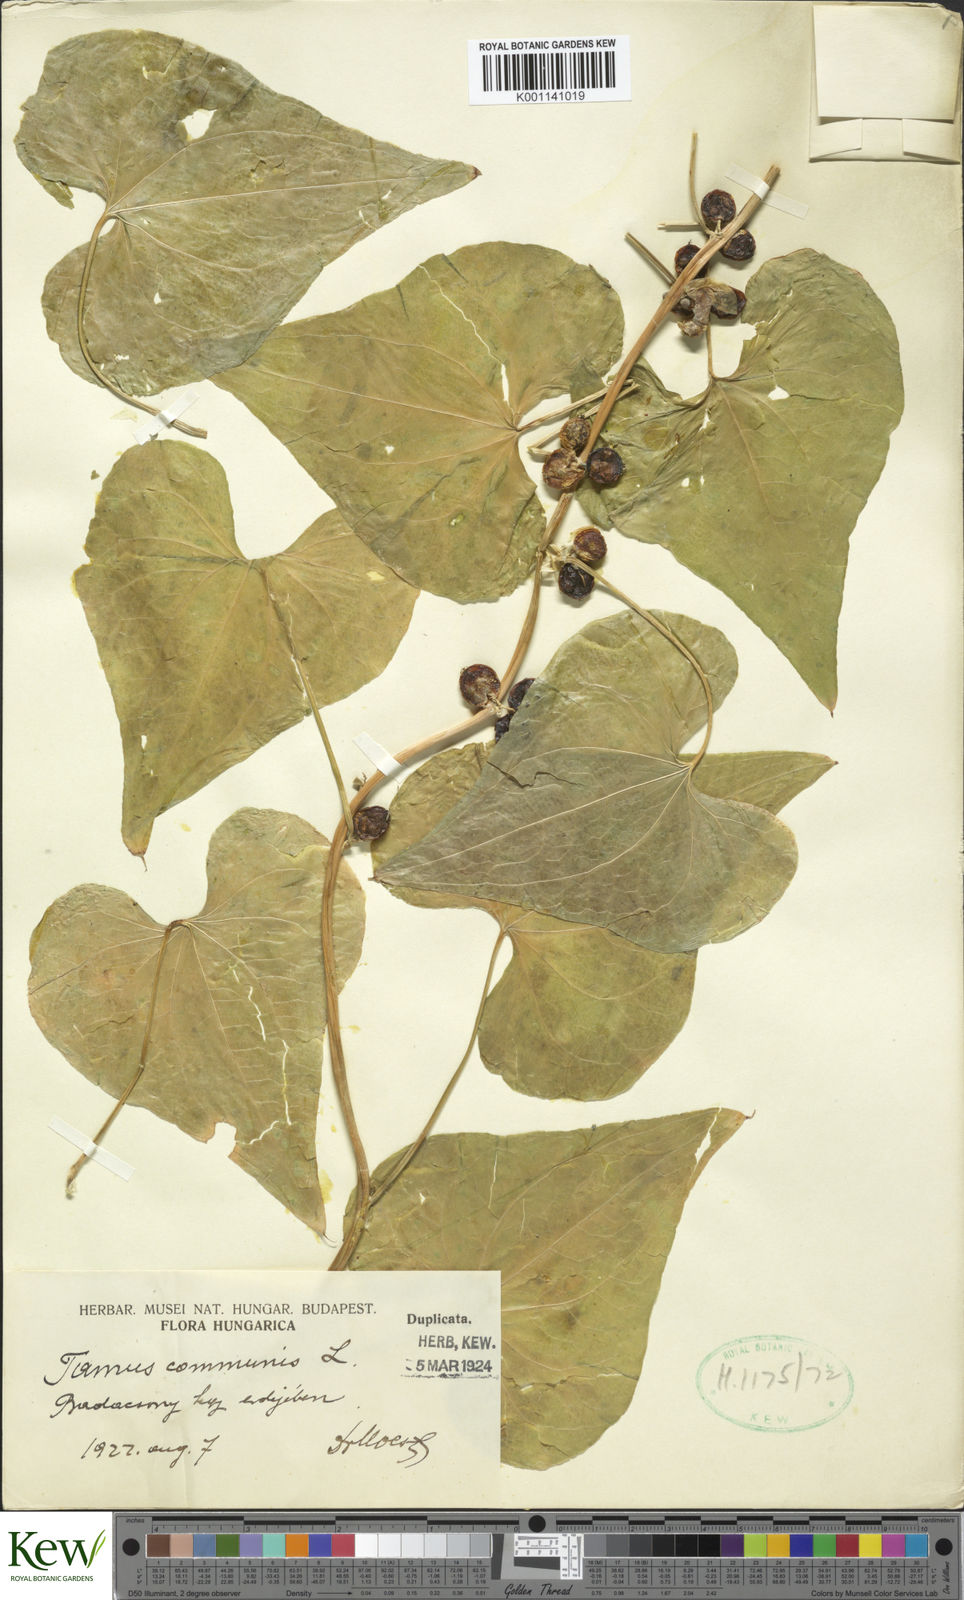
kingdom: Plantae
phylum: Tracheophyta
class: Liliopsida
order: Dioscoreales
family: Dioscoreaceae
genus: Dioscorea
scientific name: Dioscorea communis
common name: Black-bindweed
